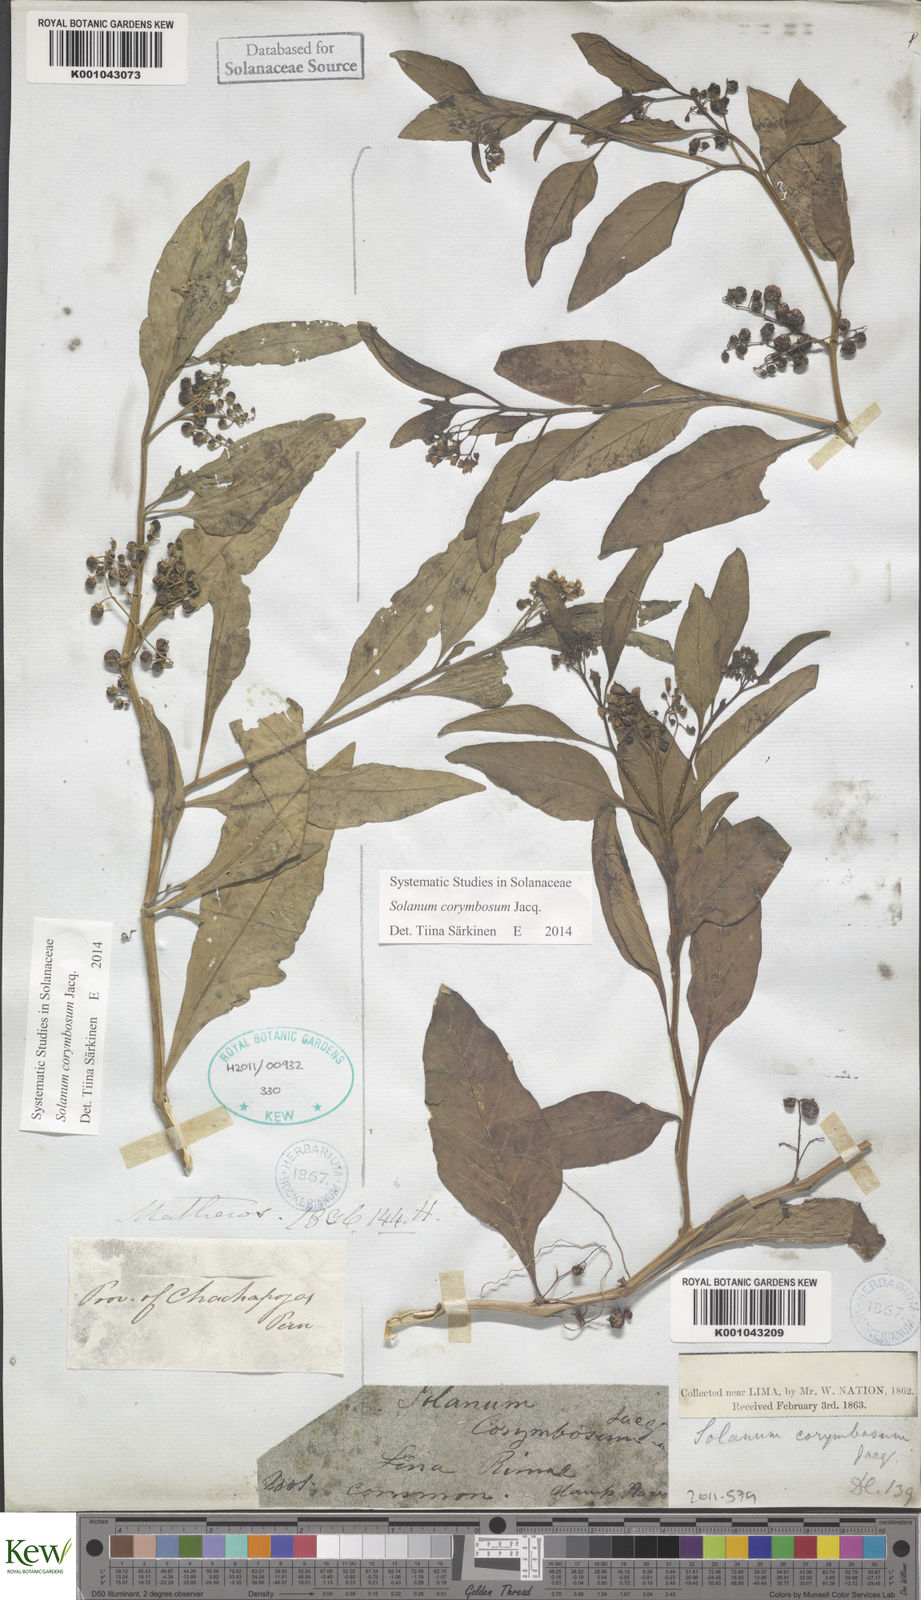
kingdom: Plantae
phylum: Tracheophyta
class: Magnoliopsida
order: Solanales
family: Solanaceae
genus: Solanum
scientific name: Solanum corymbosum
